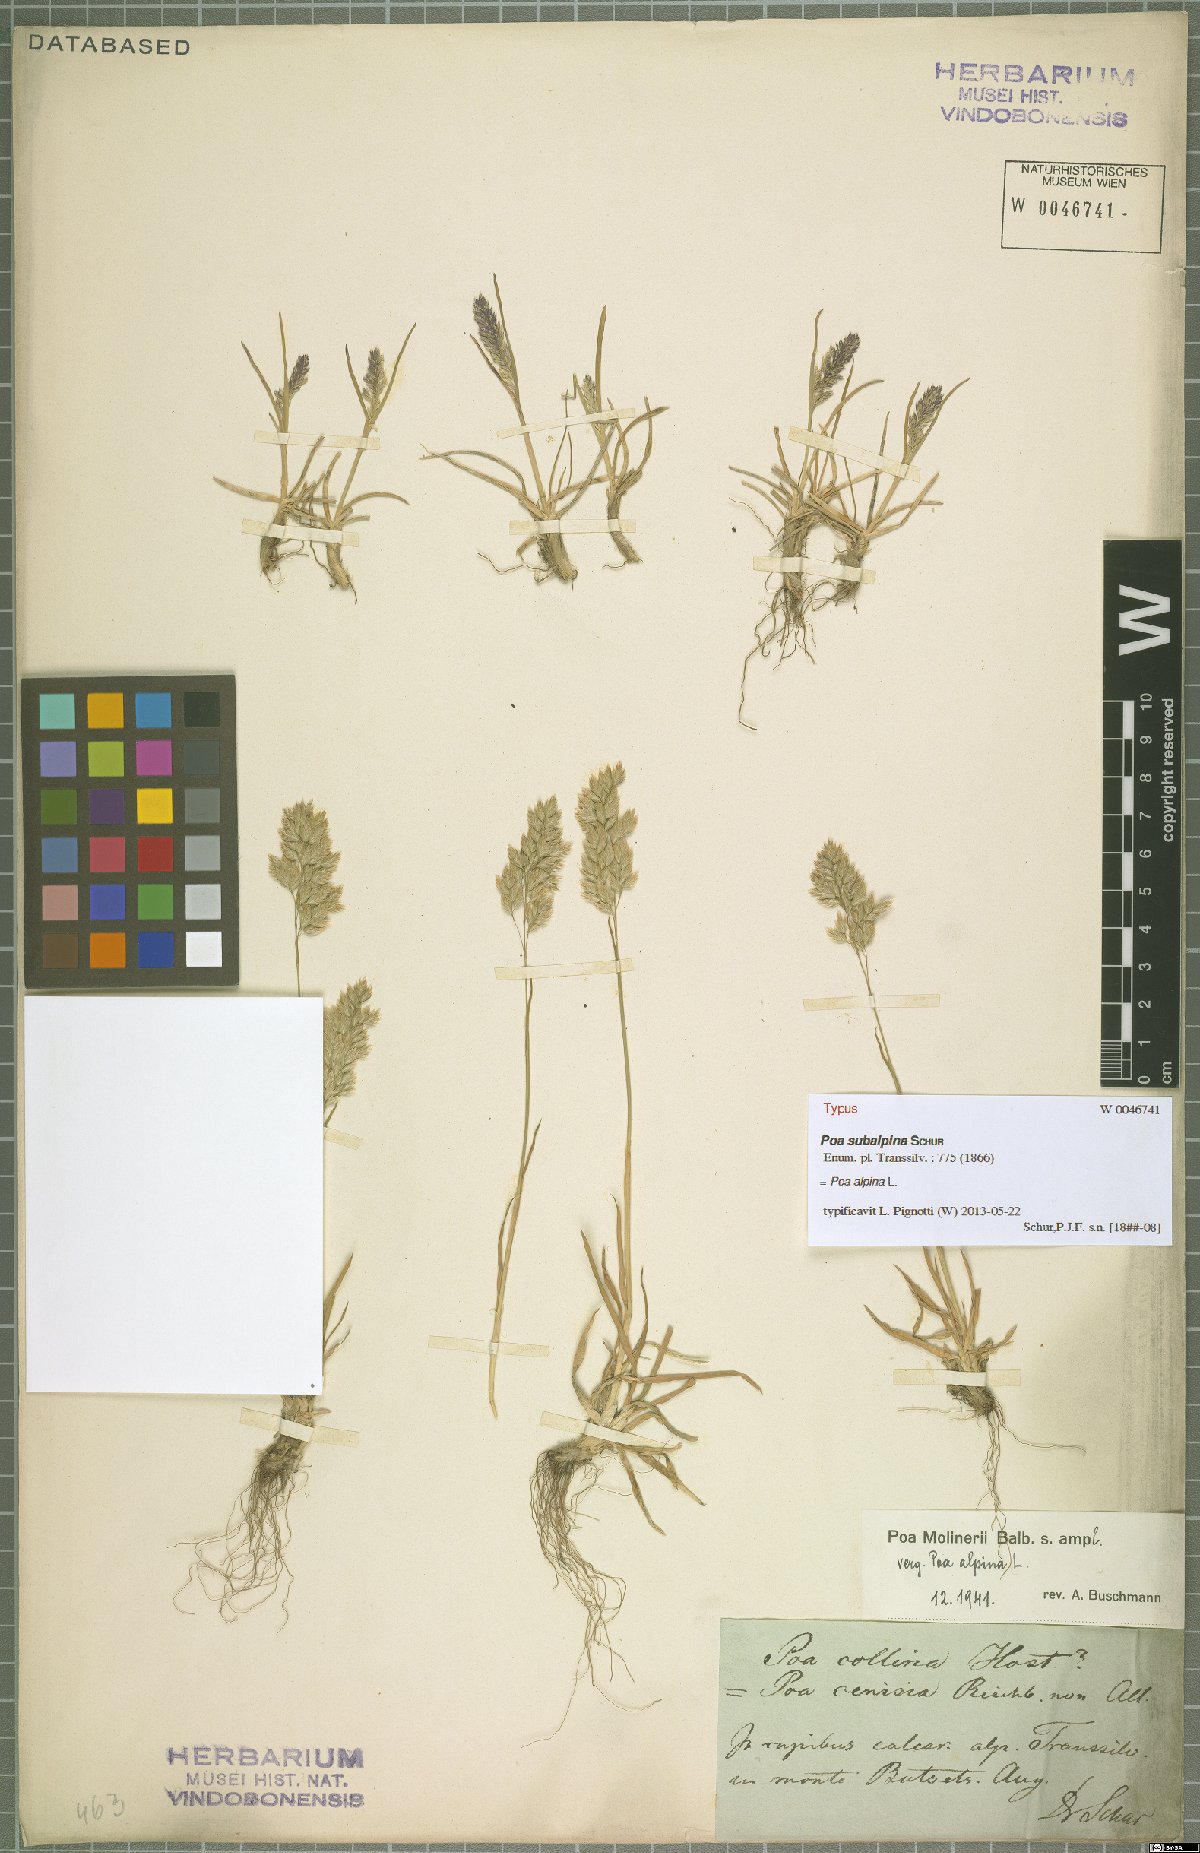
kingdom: Plantae
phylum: Tracheophyta
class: Liliopsida
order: Poales
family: Poaceae
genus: Poa
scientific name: Poa alpina
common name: Alpine bluegrass
